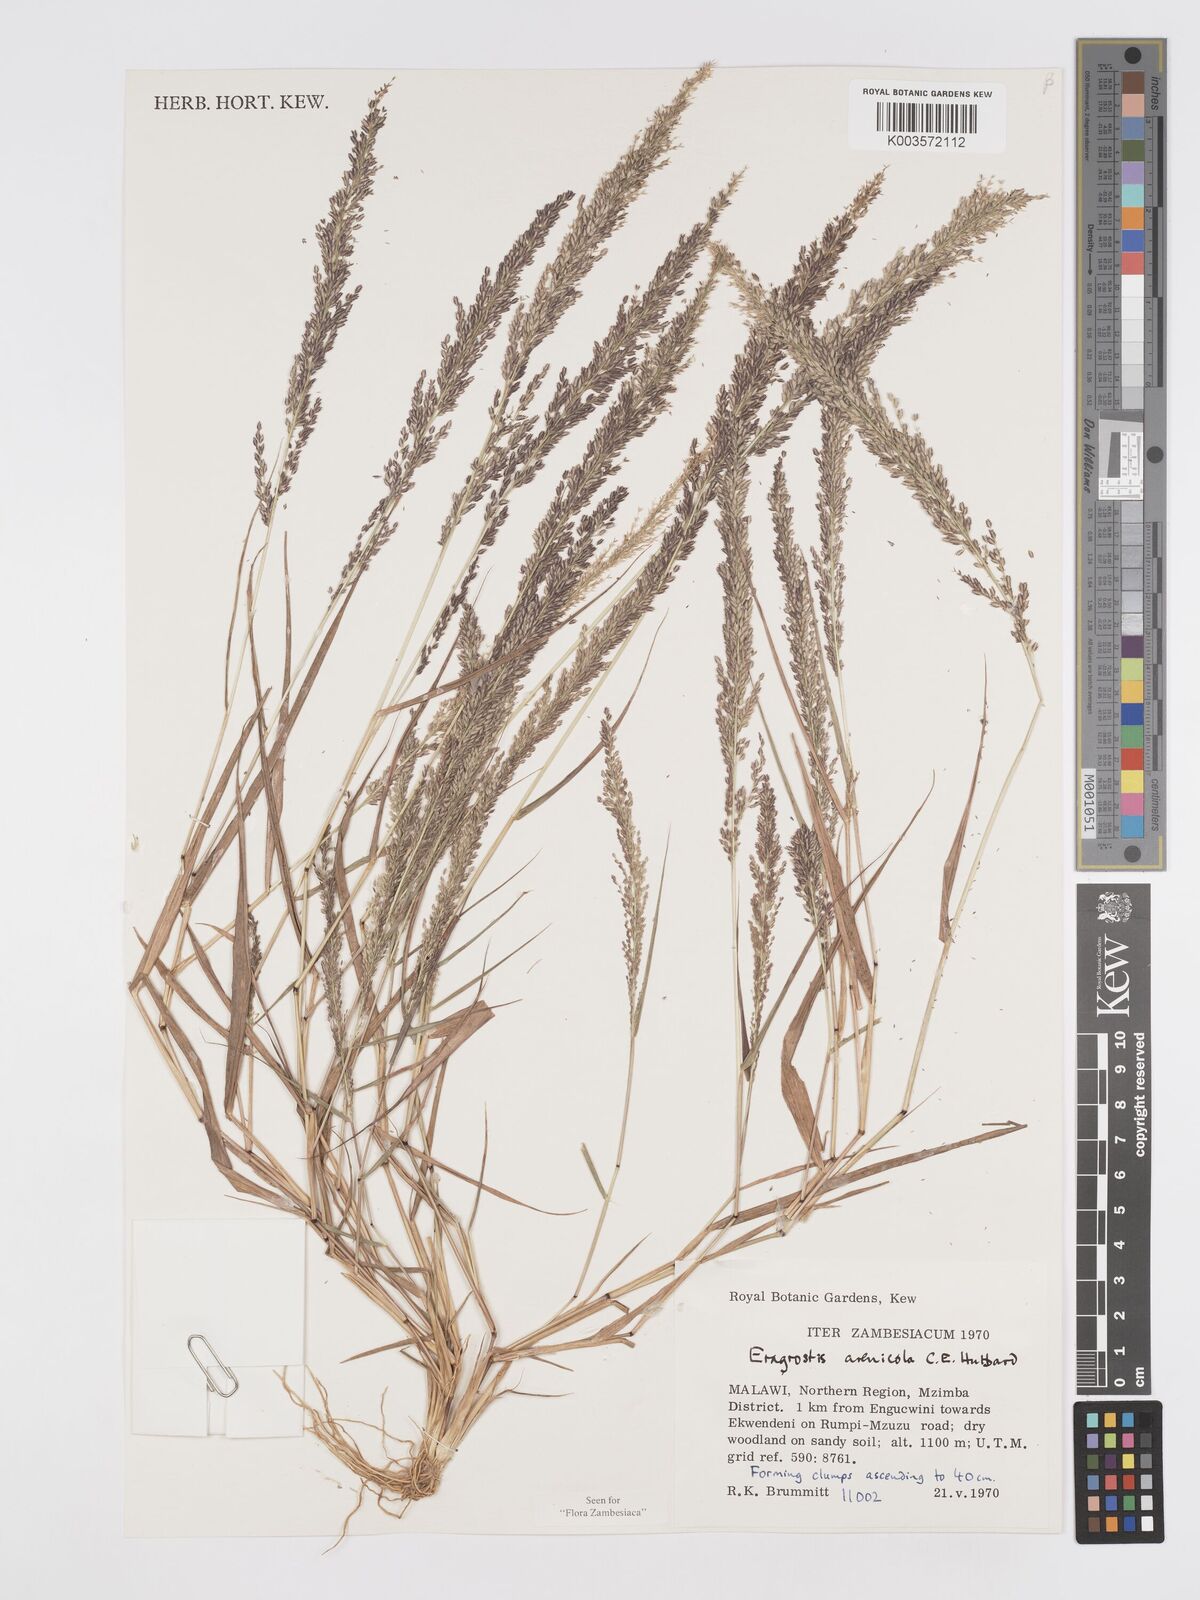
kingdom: Plantae
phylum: Tracheophyta
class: Liliopsida
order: Poales
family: Poaceae
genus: Eragrostis
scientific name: Eragrostis arenicola
